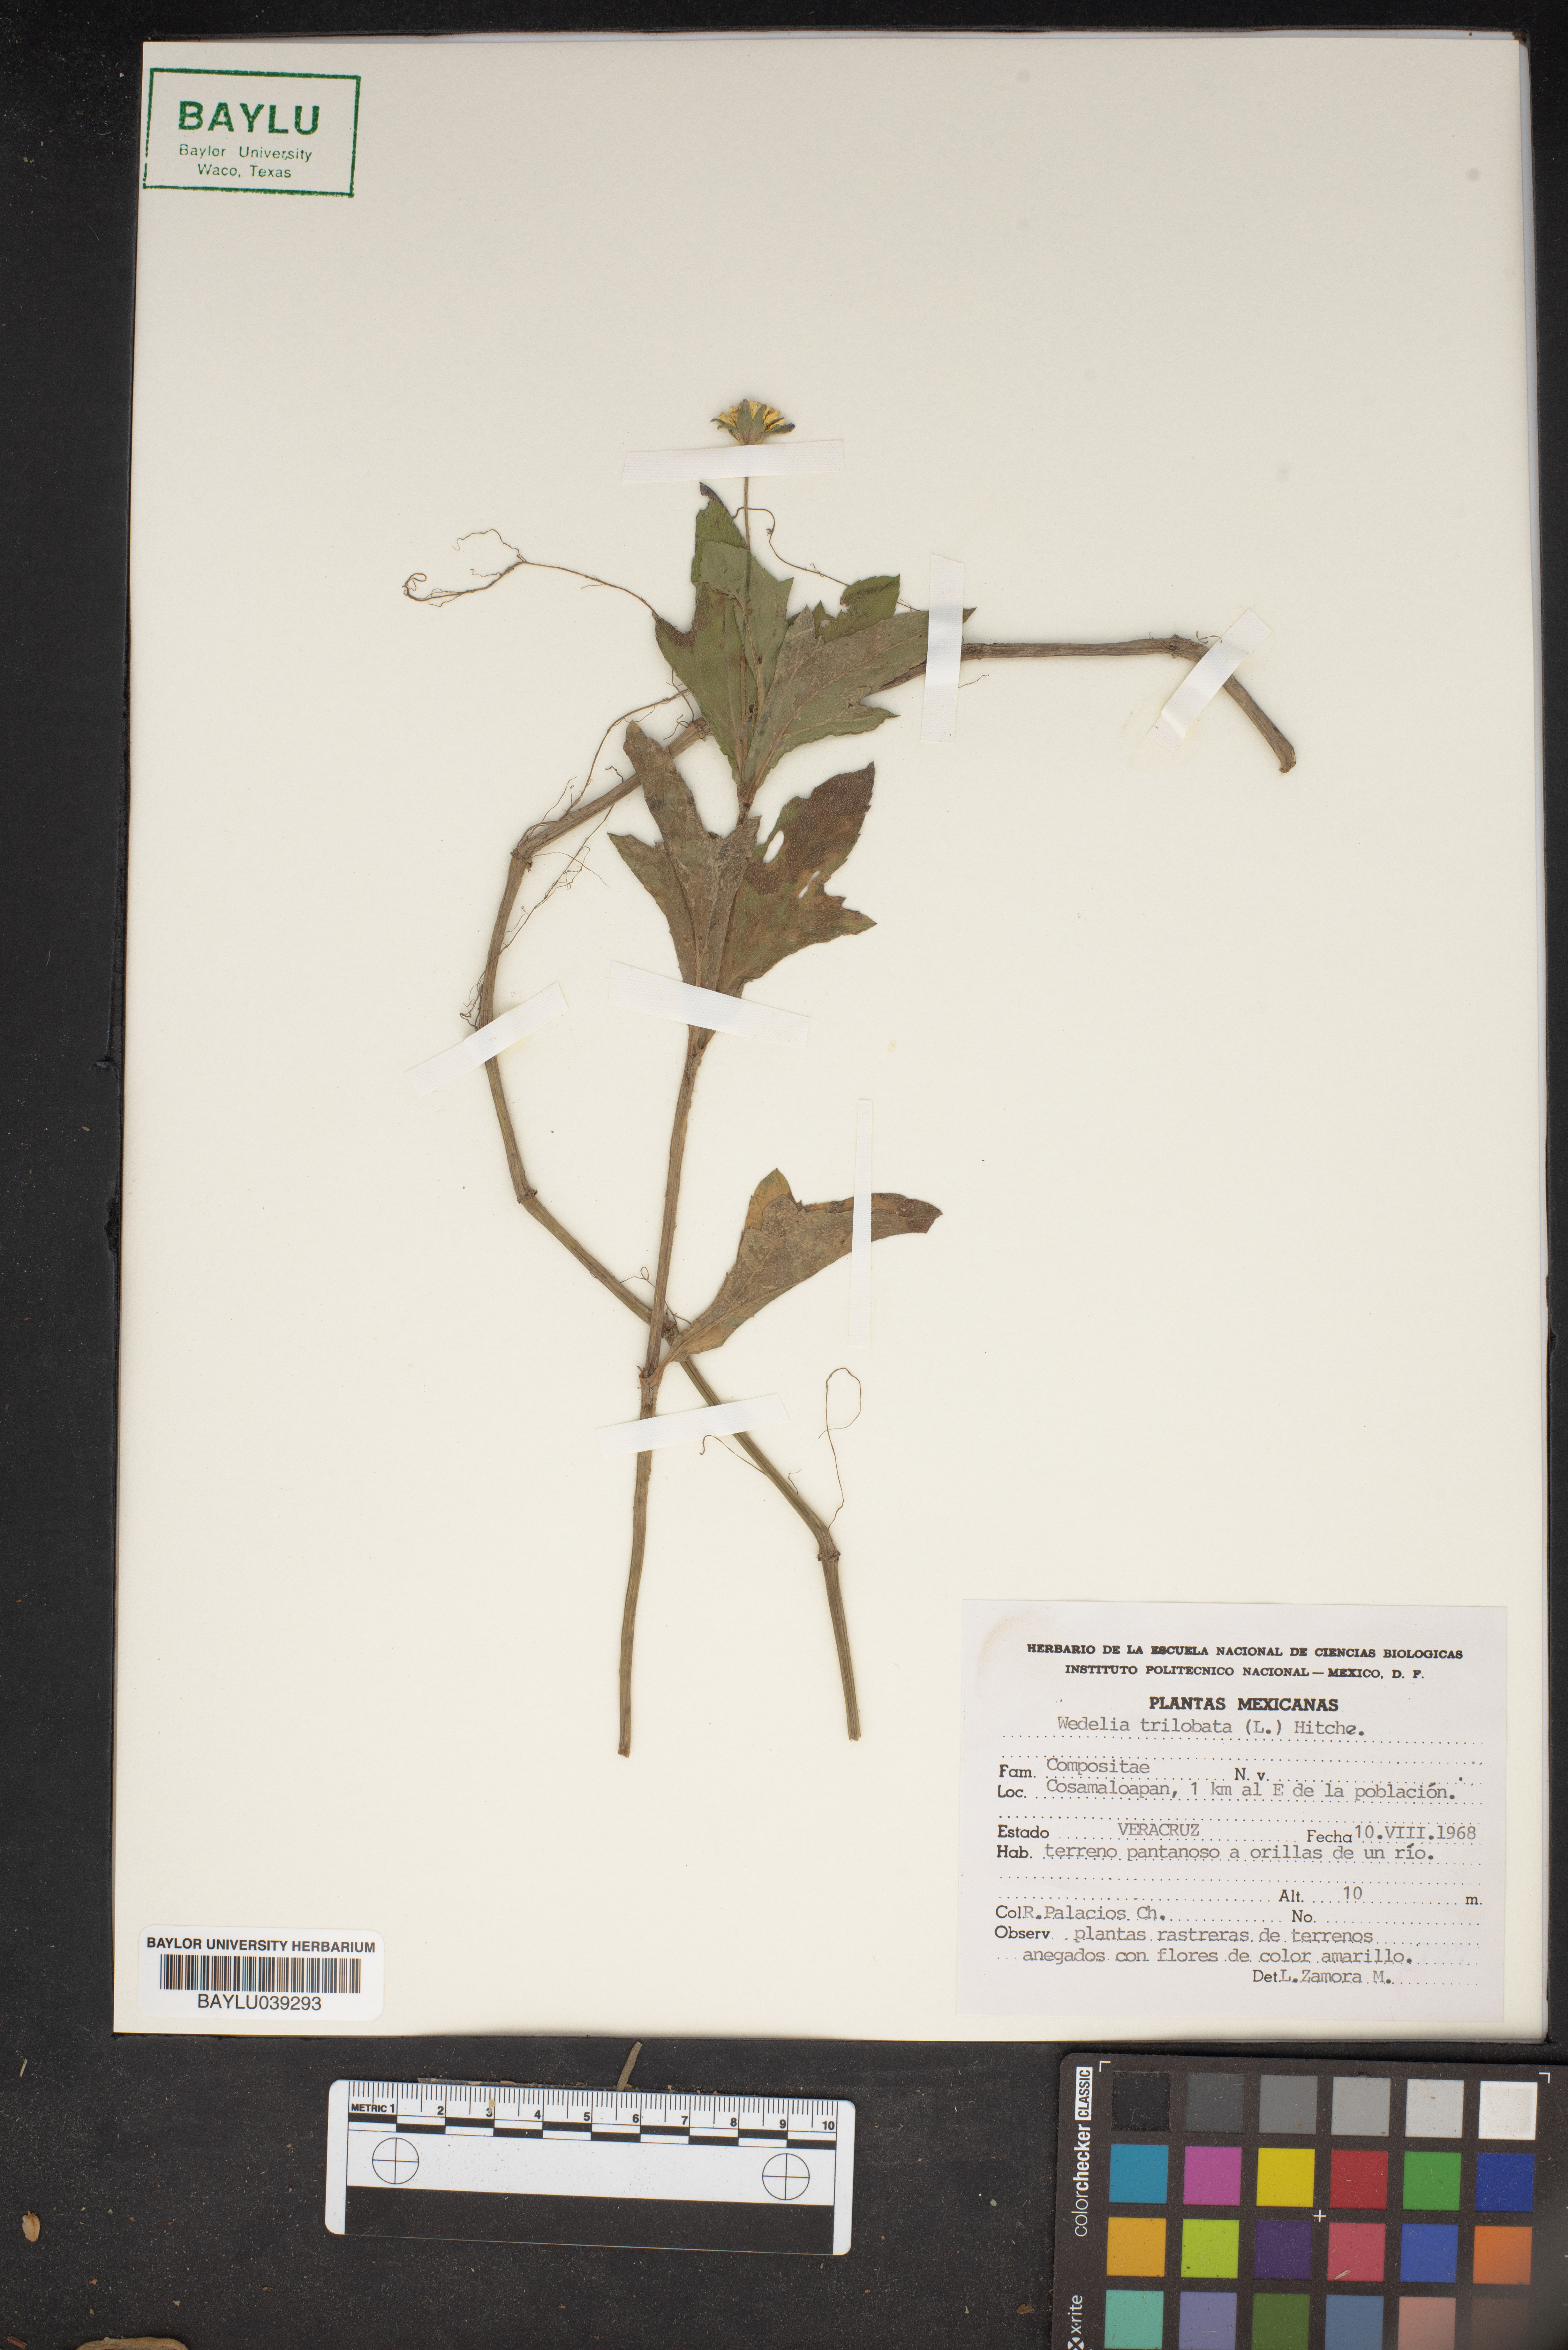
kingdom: Plantae
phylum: Tracheophyta
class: Magnoliopsida
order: Asterales
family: Asteraceae
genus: Sphagneticola
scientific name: Sphagneticola trilobata
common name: Bay biscayne creeping-oxeye
